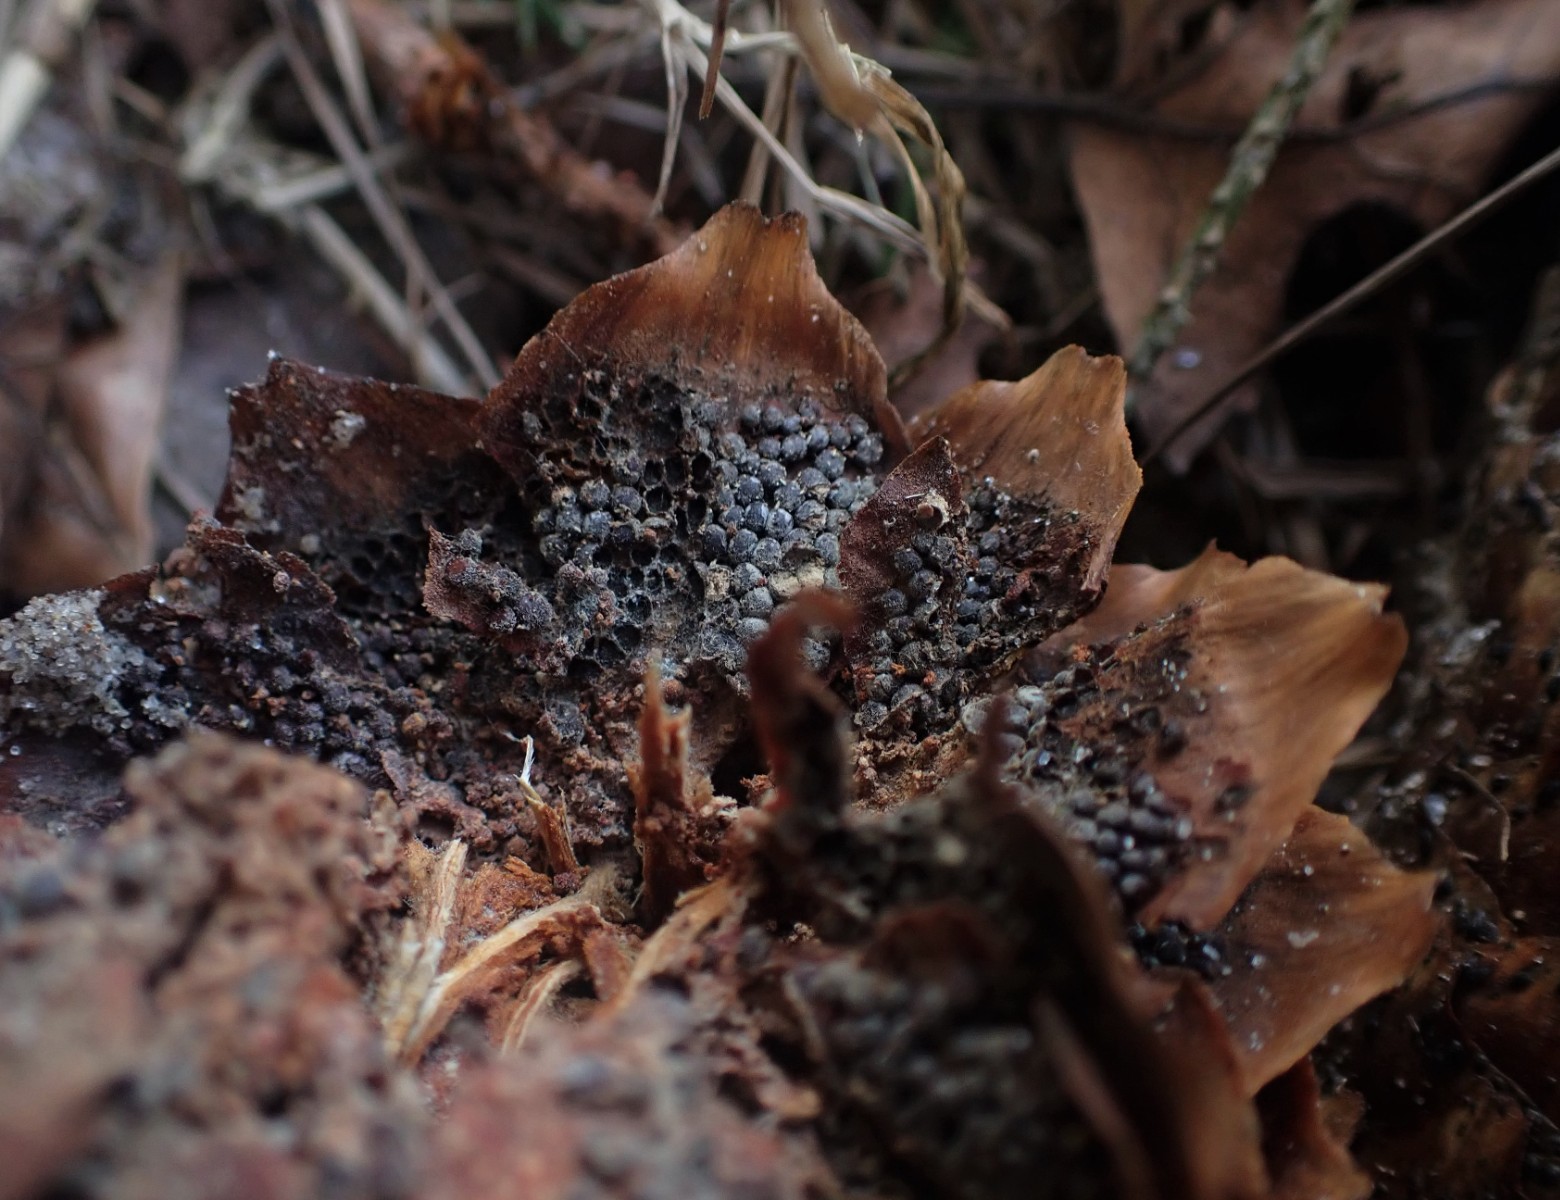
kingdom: Fungi
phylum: Basidiomycota
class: Pucciniomycetes
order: Pucciniales
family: Pucciniastraceae
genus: Thekopsora
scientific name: Thekopsora areolata
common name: grankogle-nålerust
